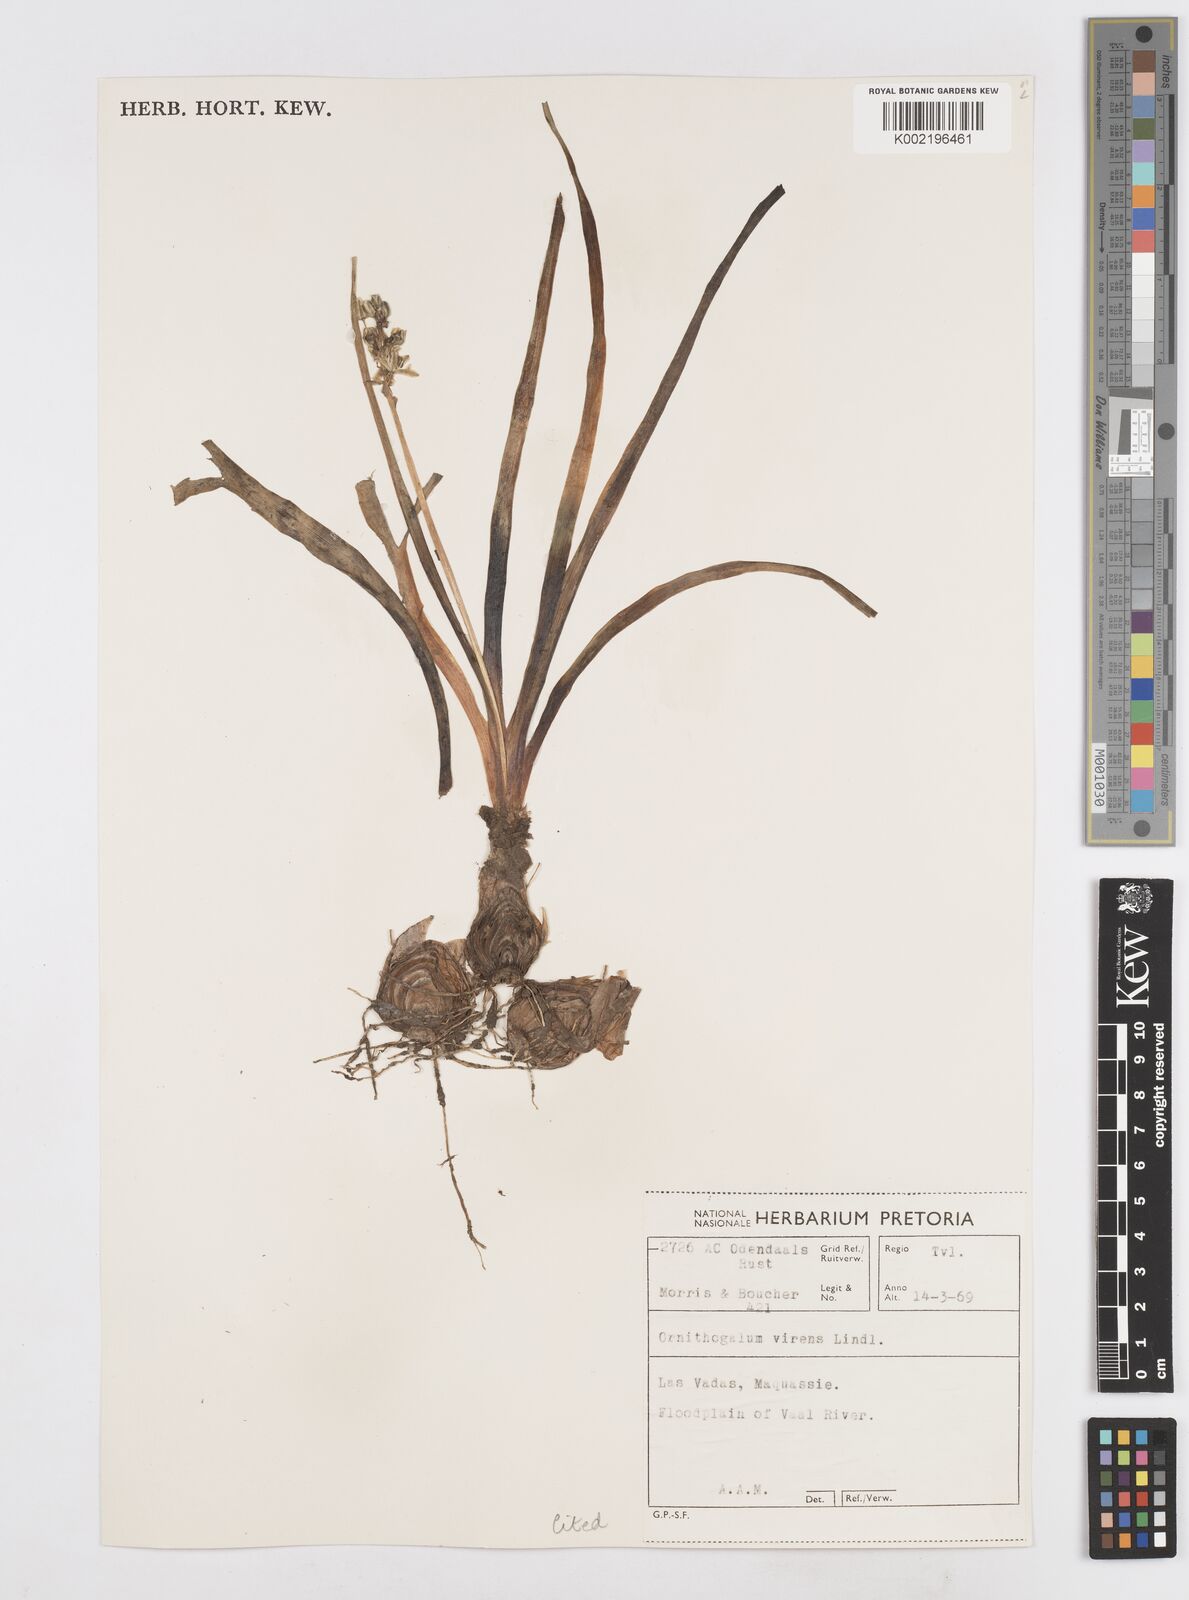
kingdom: Plantae
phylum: Tracheophyta
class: Liliopsida
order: Asparagales
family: Asparagaceae
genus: Albuca
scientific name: Albuca virens
